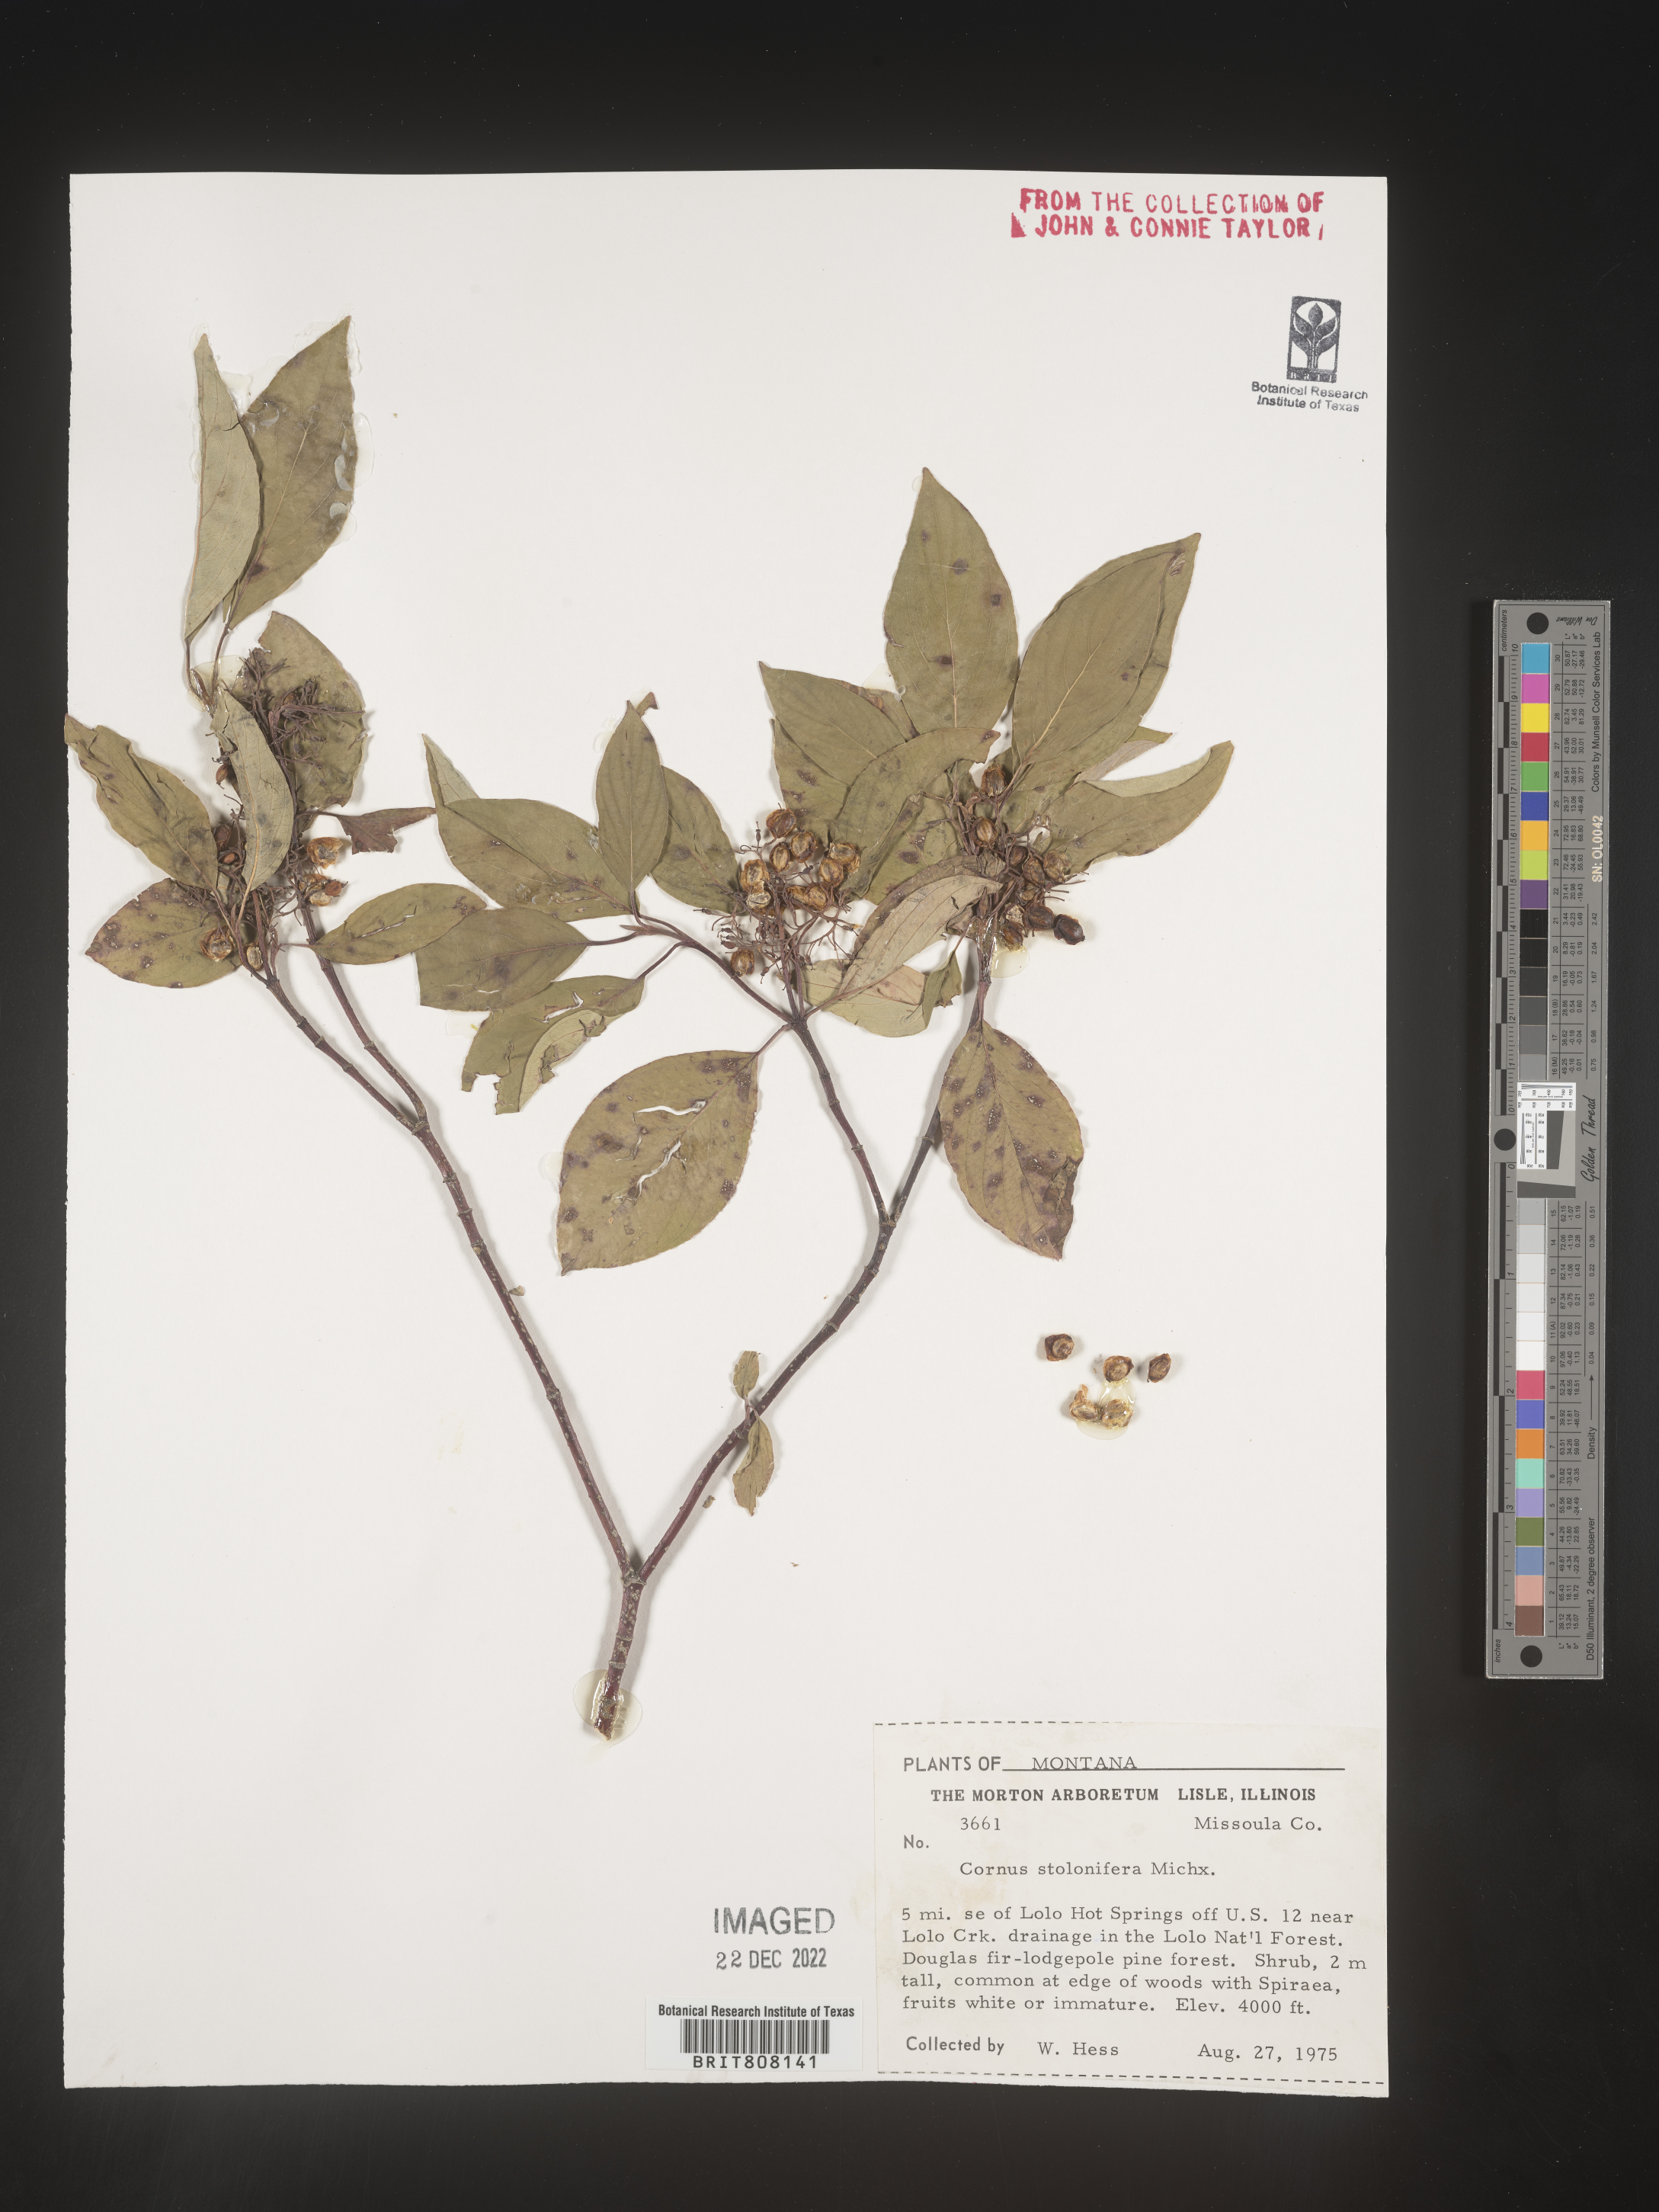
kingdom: Plantae
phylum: Tracheophyta
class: Magnoliopsida
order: Cornales
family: Cornaceae
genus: Cornus
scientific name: Cornus sericea
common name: Red-osier dogwood
